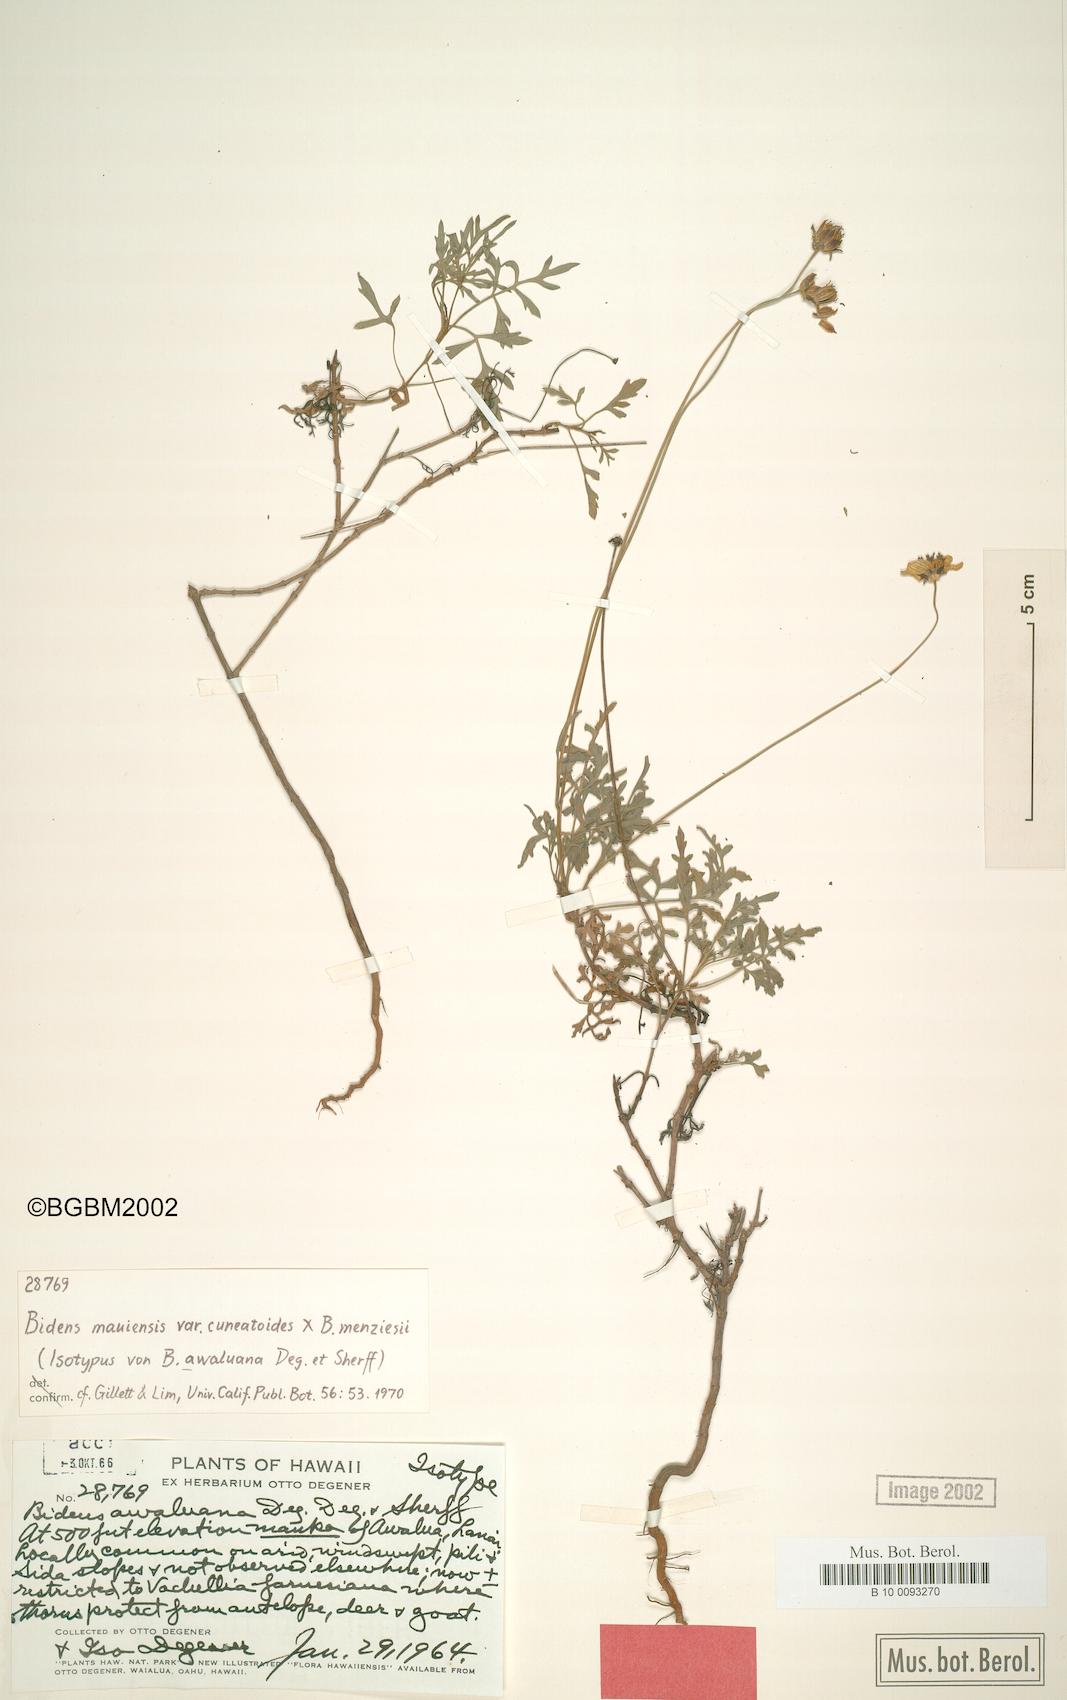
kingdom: Plantae
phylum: Tracheophyta
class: Magnoliopsida
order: Asterales
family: Asteraceae
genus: Bidens
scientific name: Bidens mauiensis
